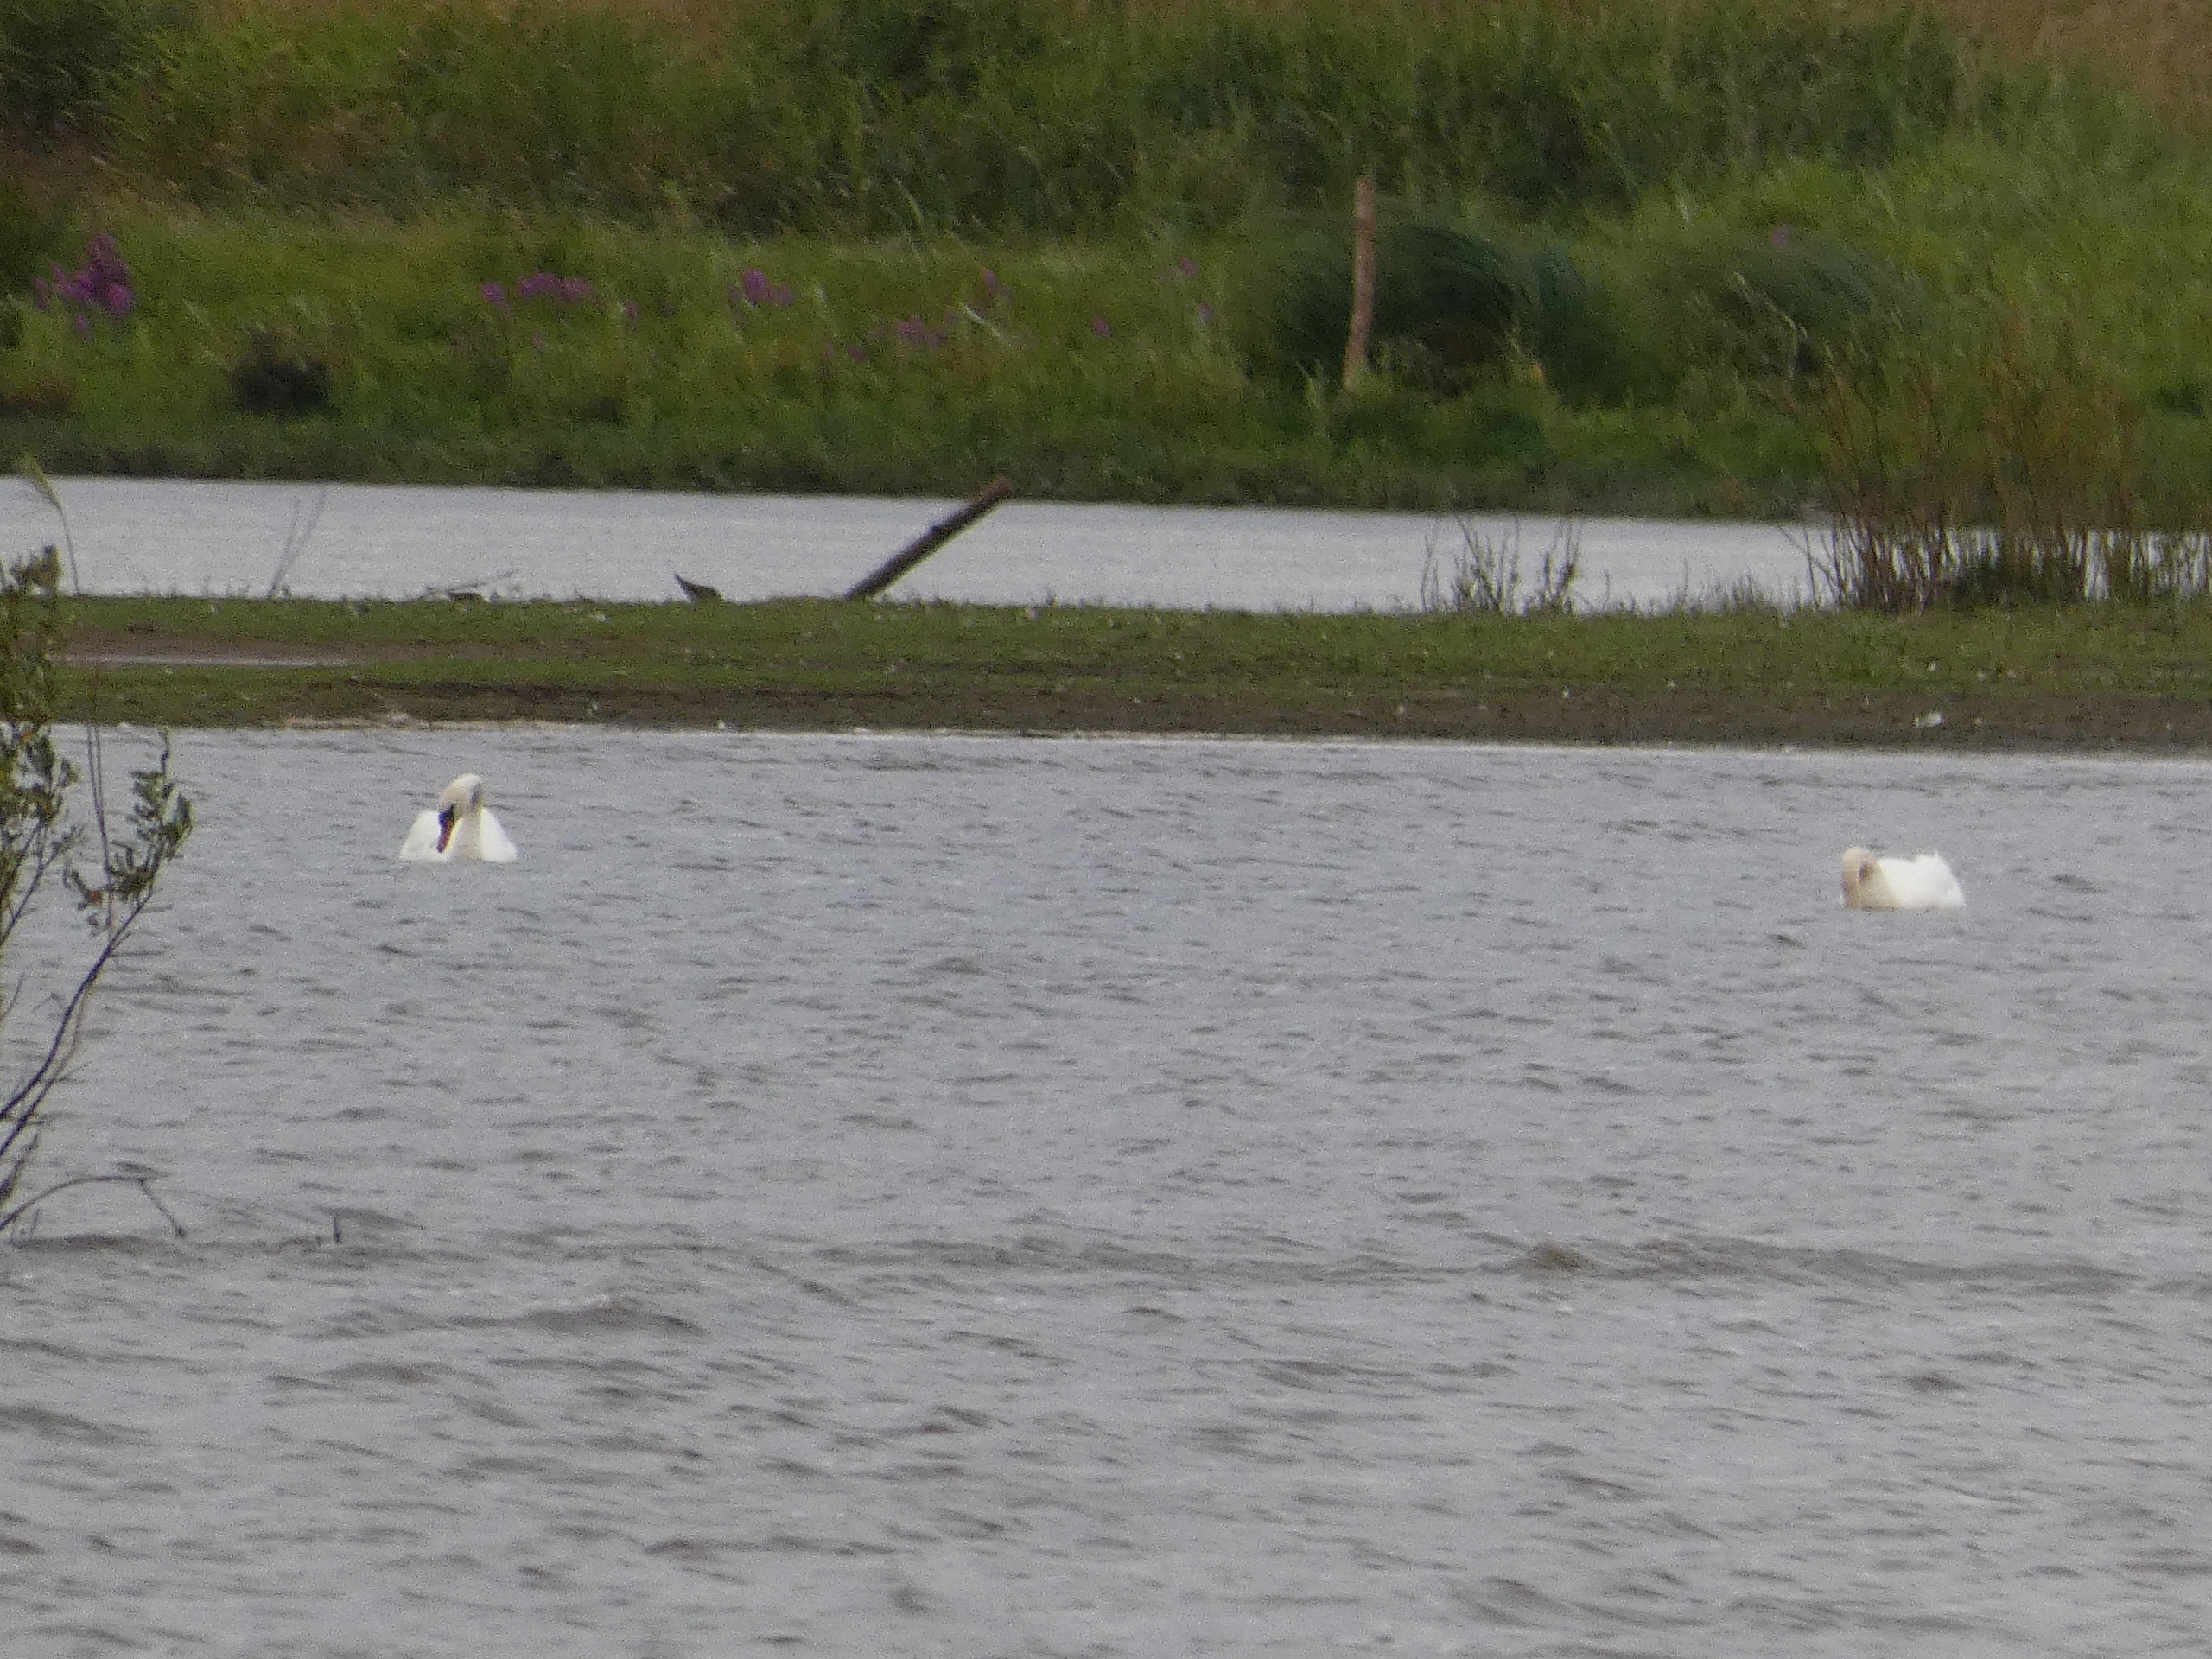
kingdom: Animalia
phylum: Chordata
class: Aves
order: Anseriformes
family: Anatidae
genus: Cygnus
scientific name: Cygnus olor
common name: Knopsvane
